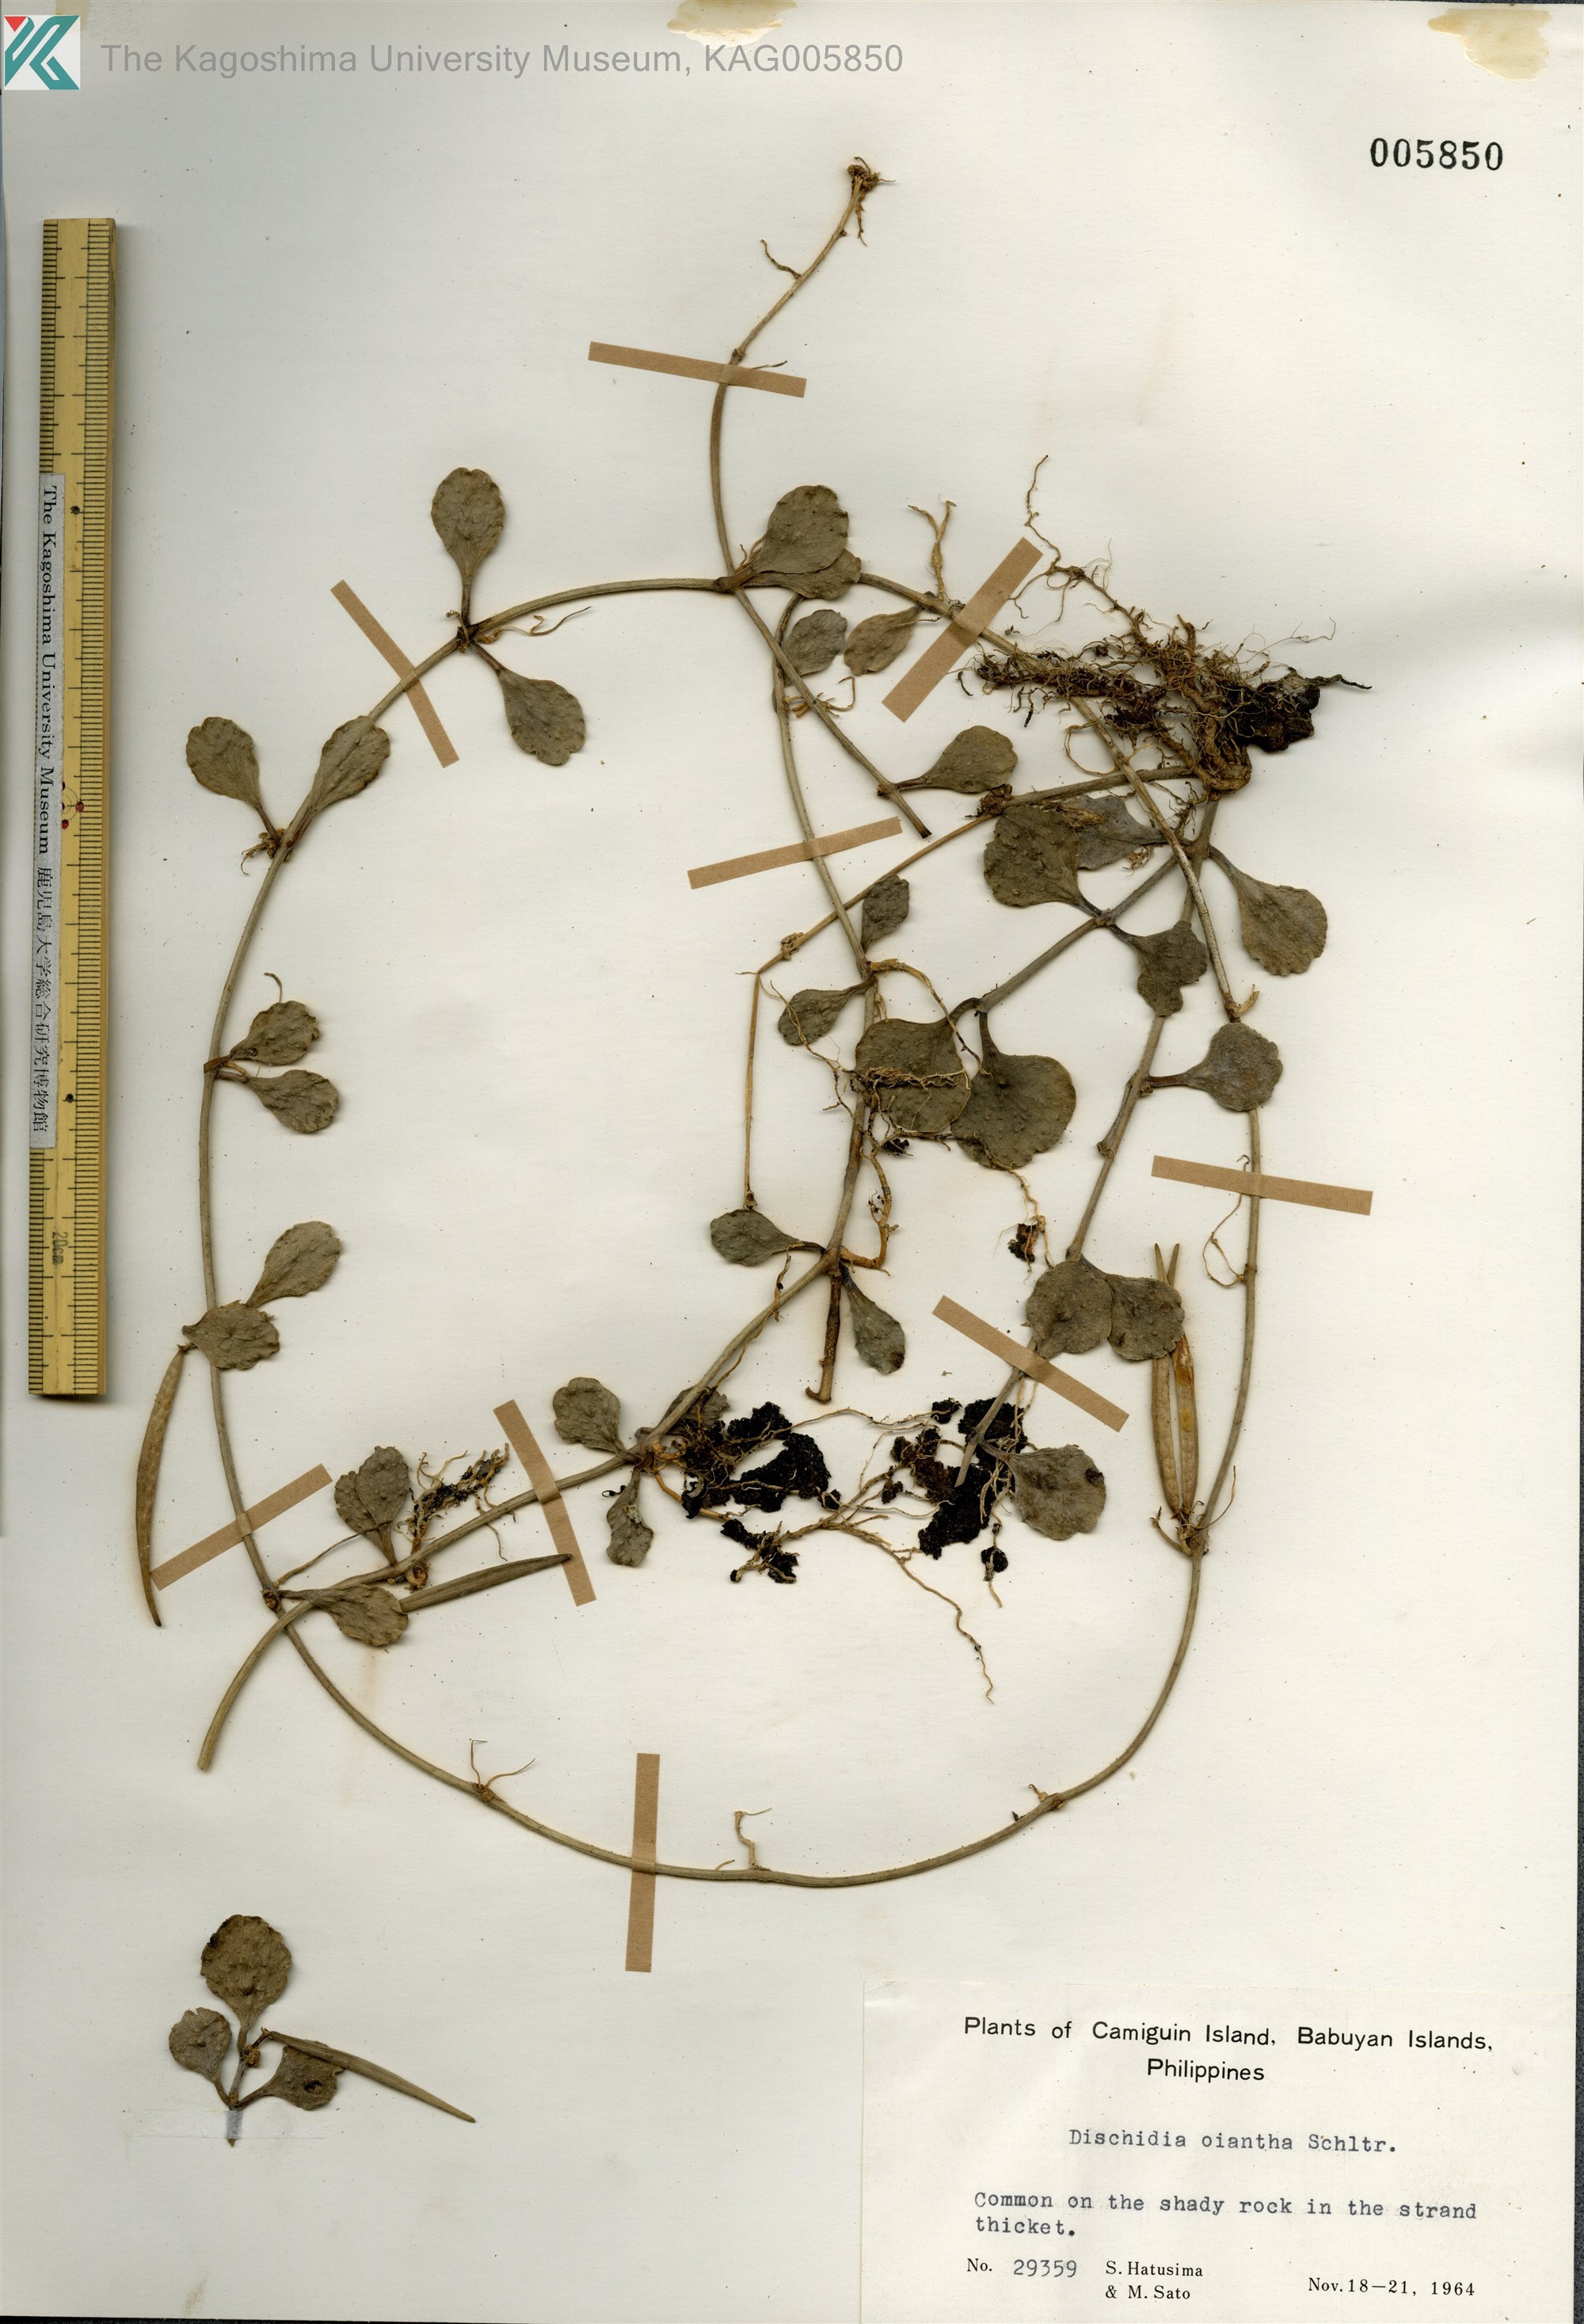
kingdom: Plantae
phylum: Tracheophyta
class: Magnoliopsida
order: Gentianales
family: Apocynaceae
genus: Dischidia
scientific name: Dischidia oiantha
